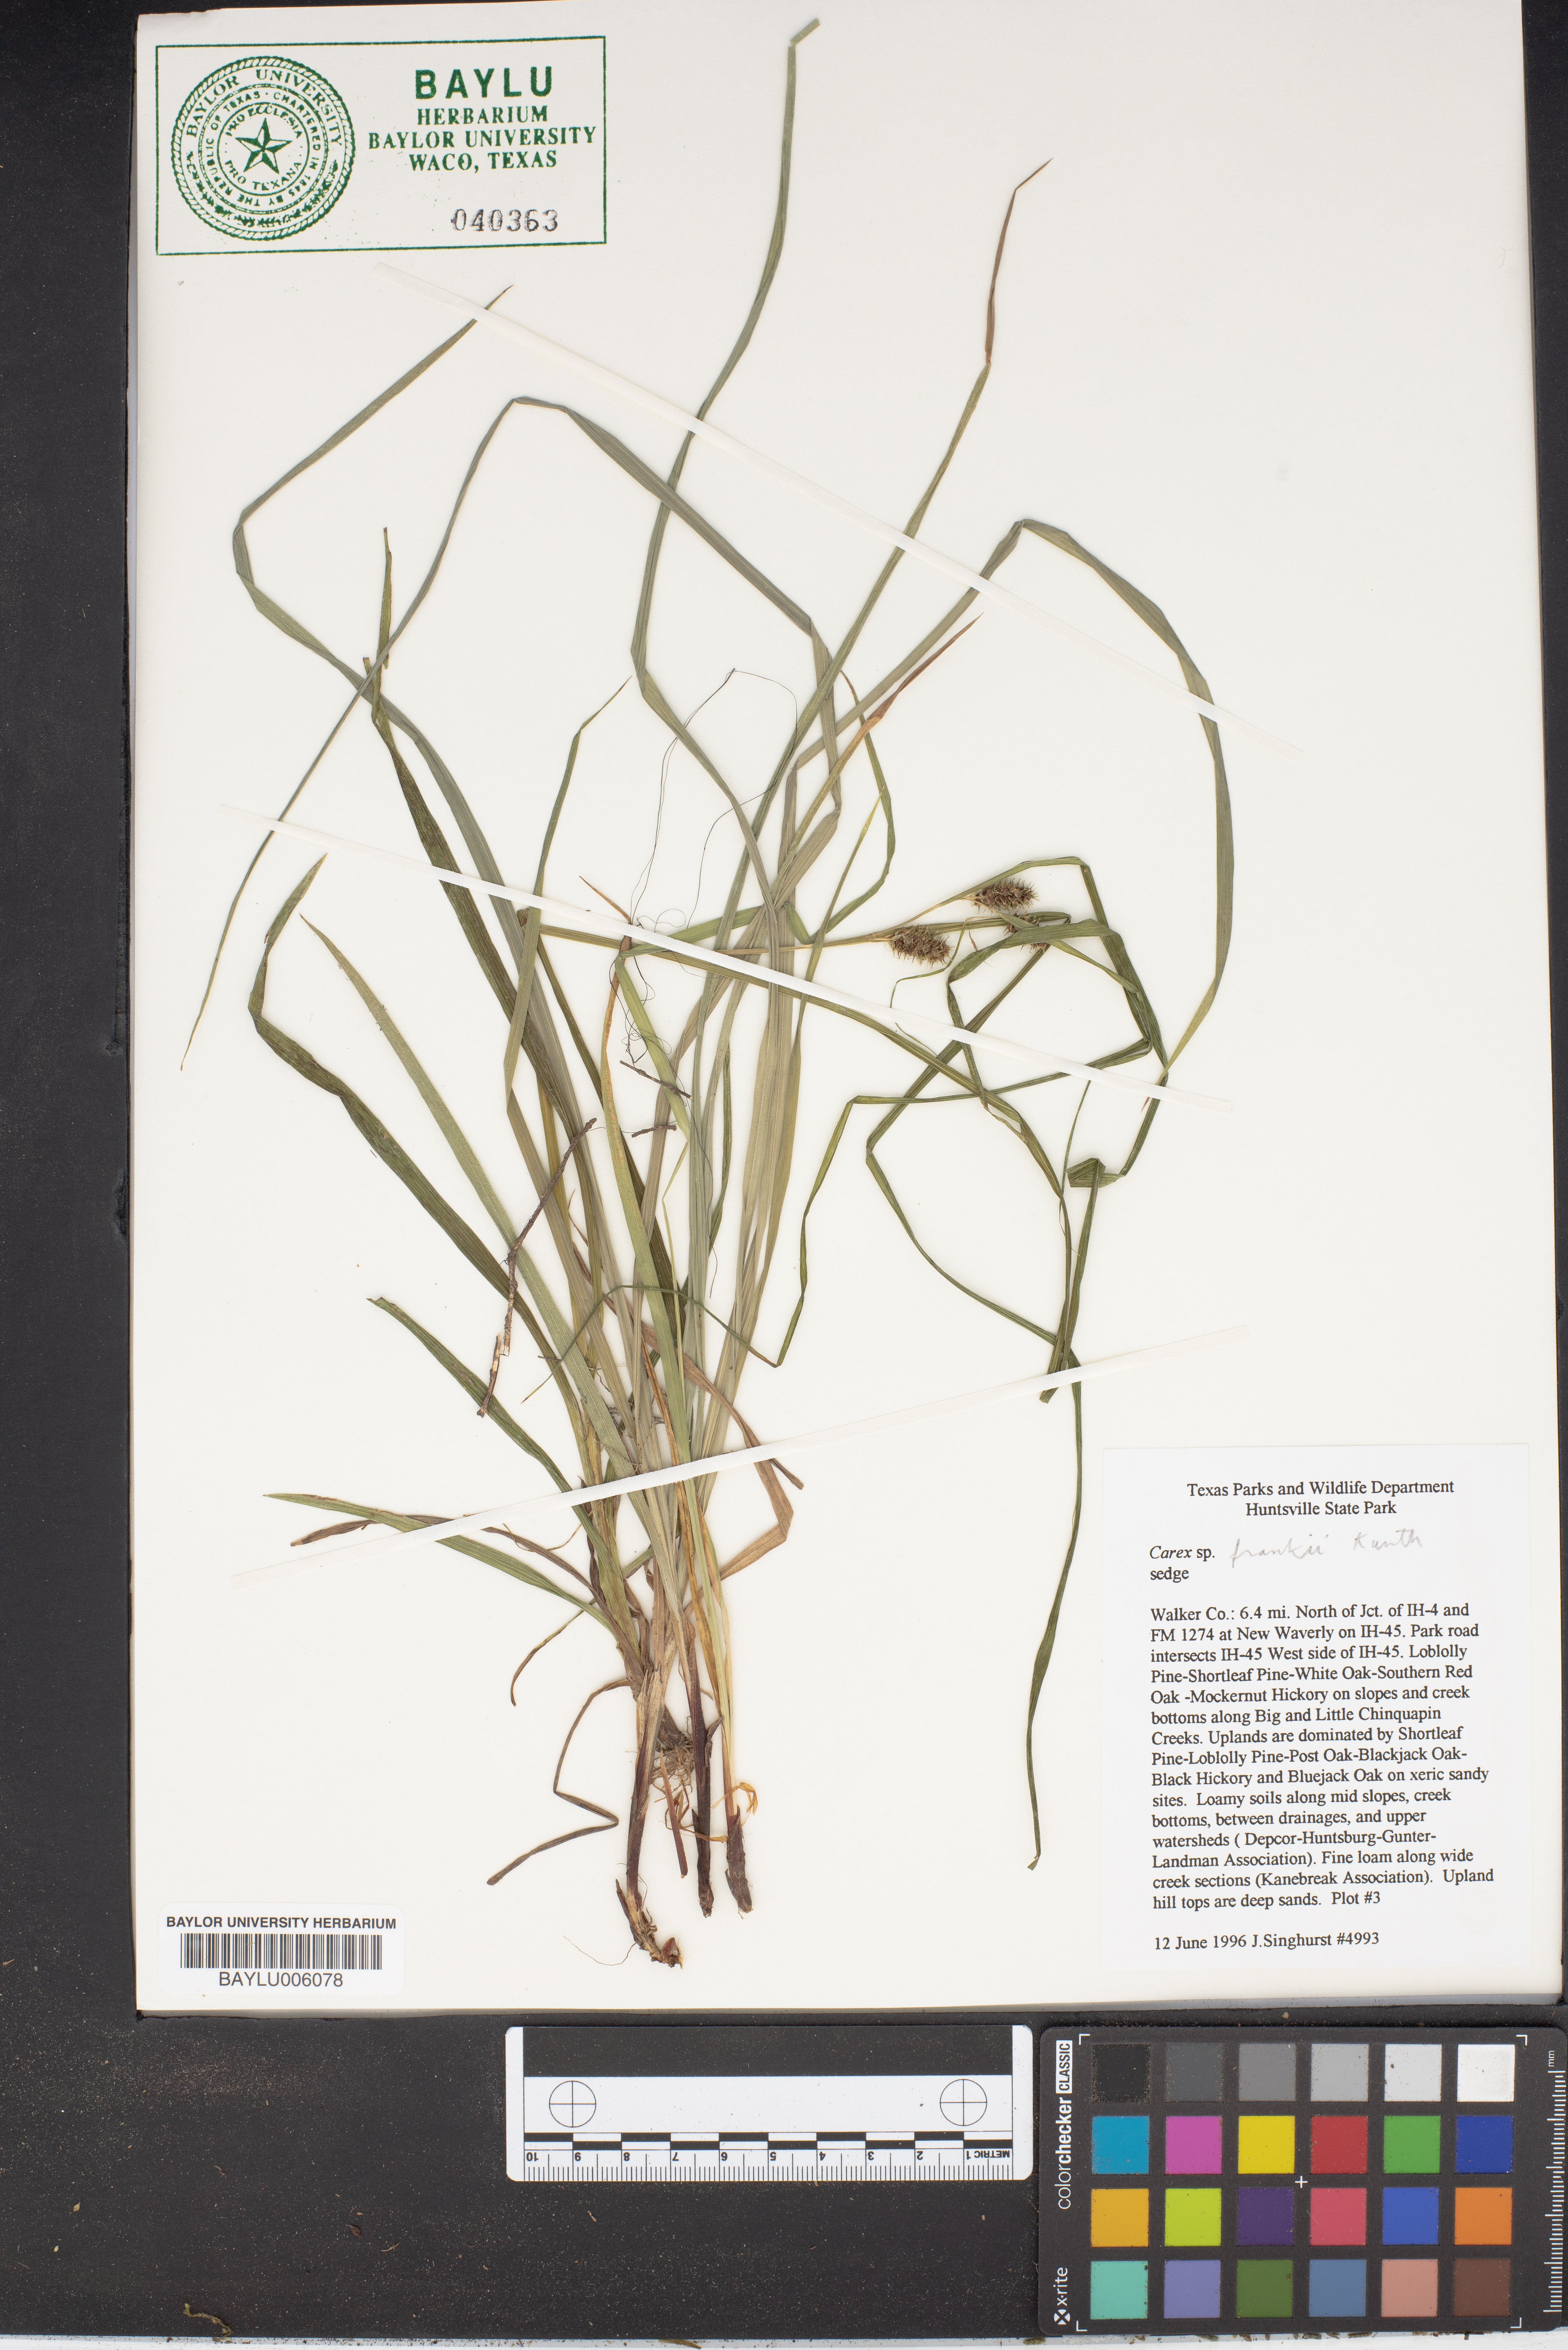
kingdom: Plantae
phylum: Tracheophyta
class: Liliopsida
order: Poales
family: Cyperaceae
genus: Carex
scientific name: Carex frankii
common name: Frank's sedge
